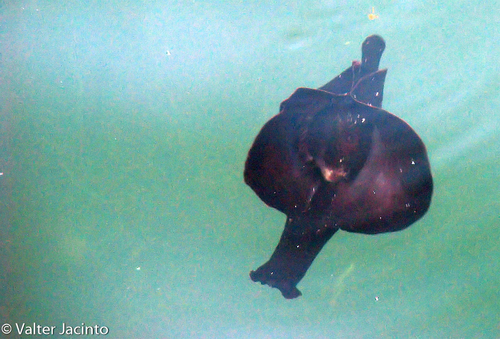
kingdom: Animalia
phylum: Mollusca
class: Gastropoda
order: Aplysiida
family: Aplysiidae
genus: Aplysia
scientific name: Aplysia fasciata
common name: Banded sea hare
